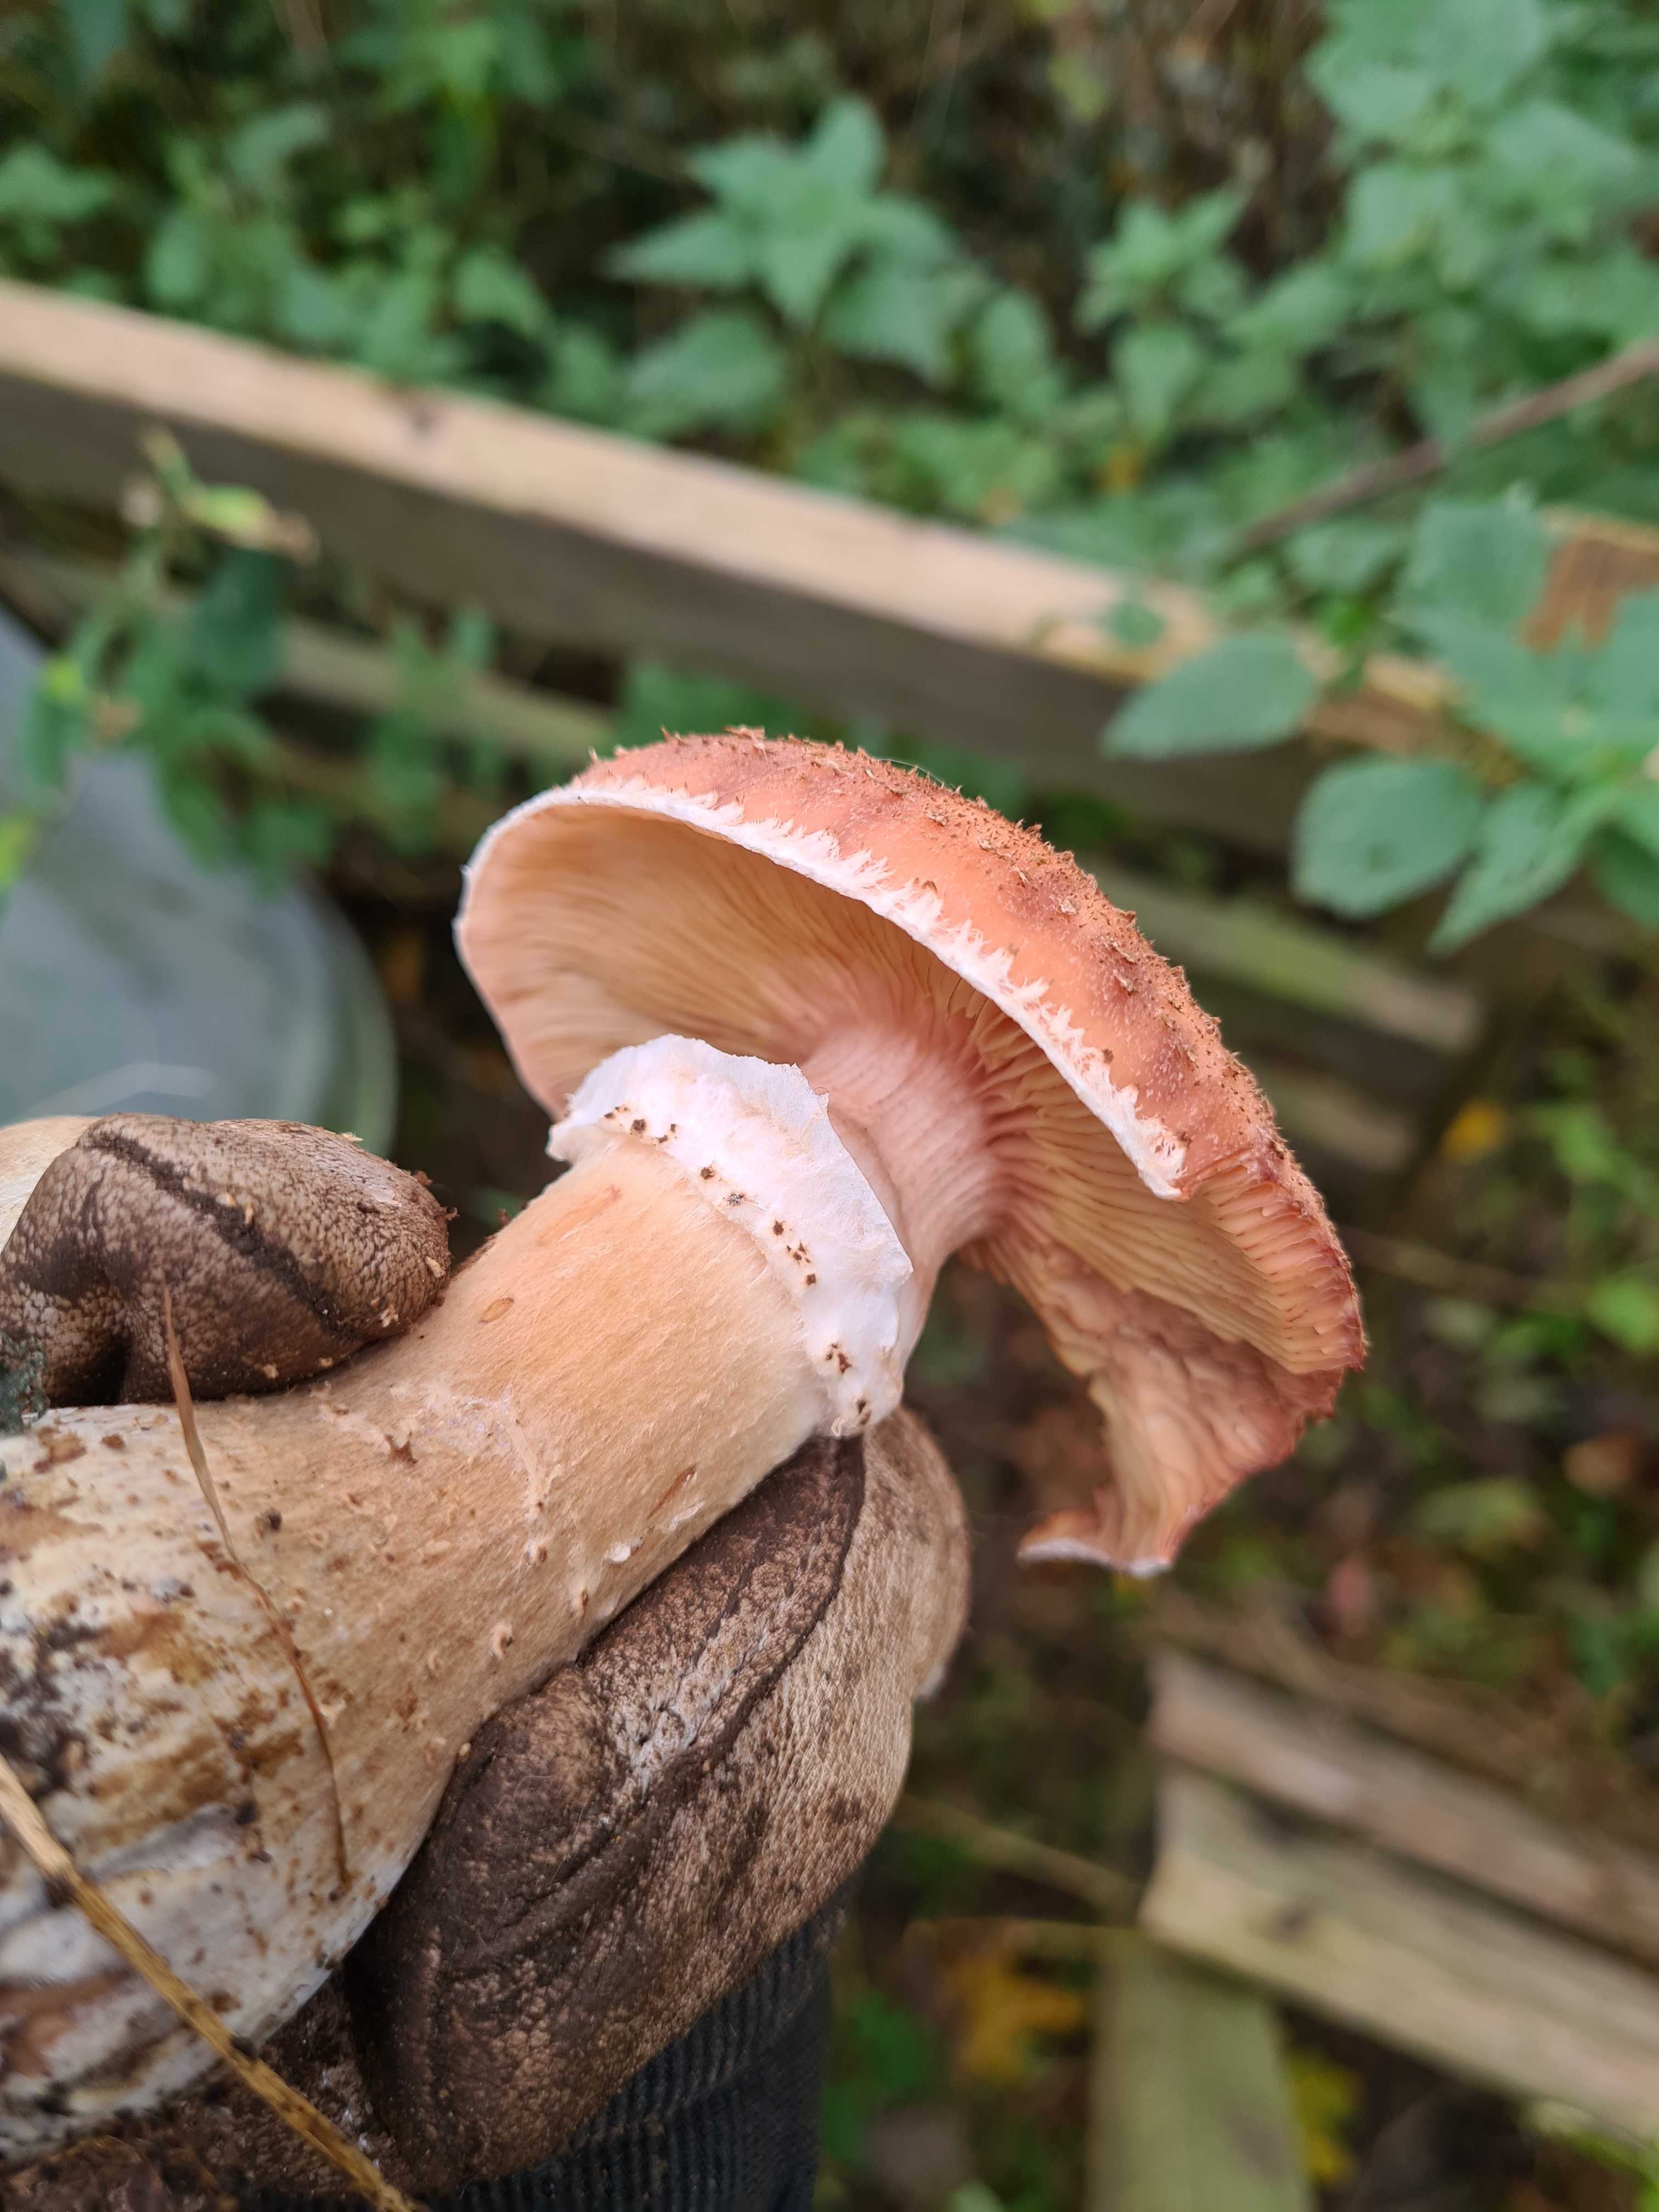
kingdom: Fungi
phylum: Basidiomycota
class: Agaricomycetes
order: Agaricales
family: Physalacriaceae
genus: Armillaria
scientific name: Armillaria lutea
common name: køllestokket honningsvamp
